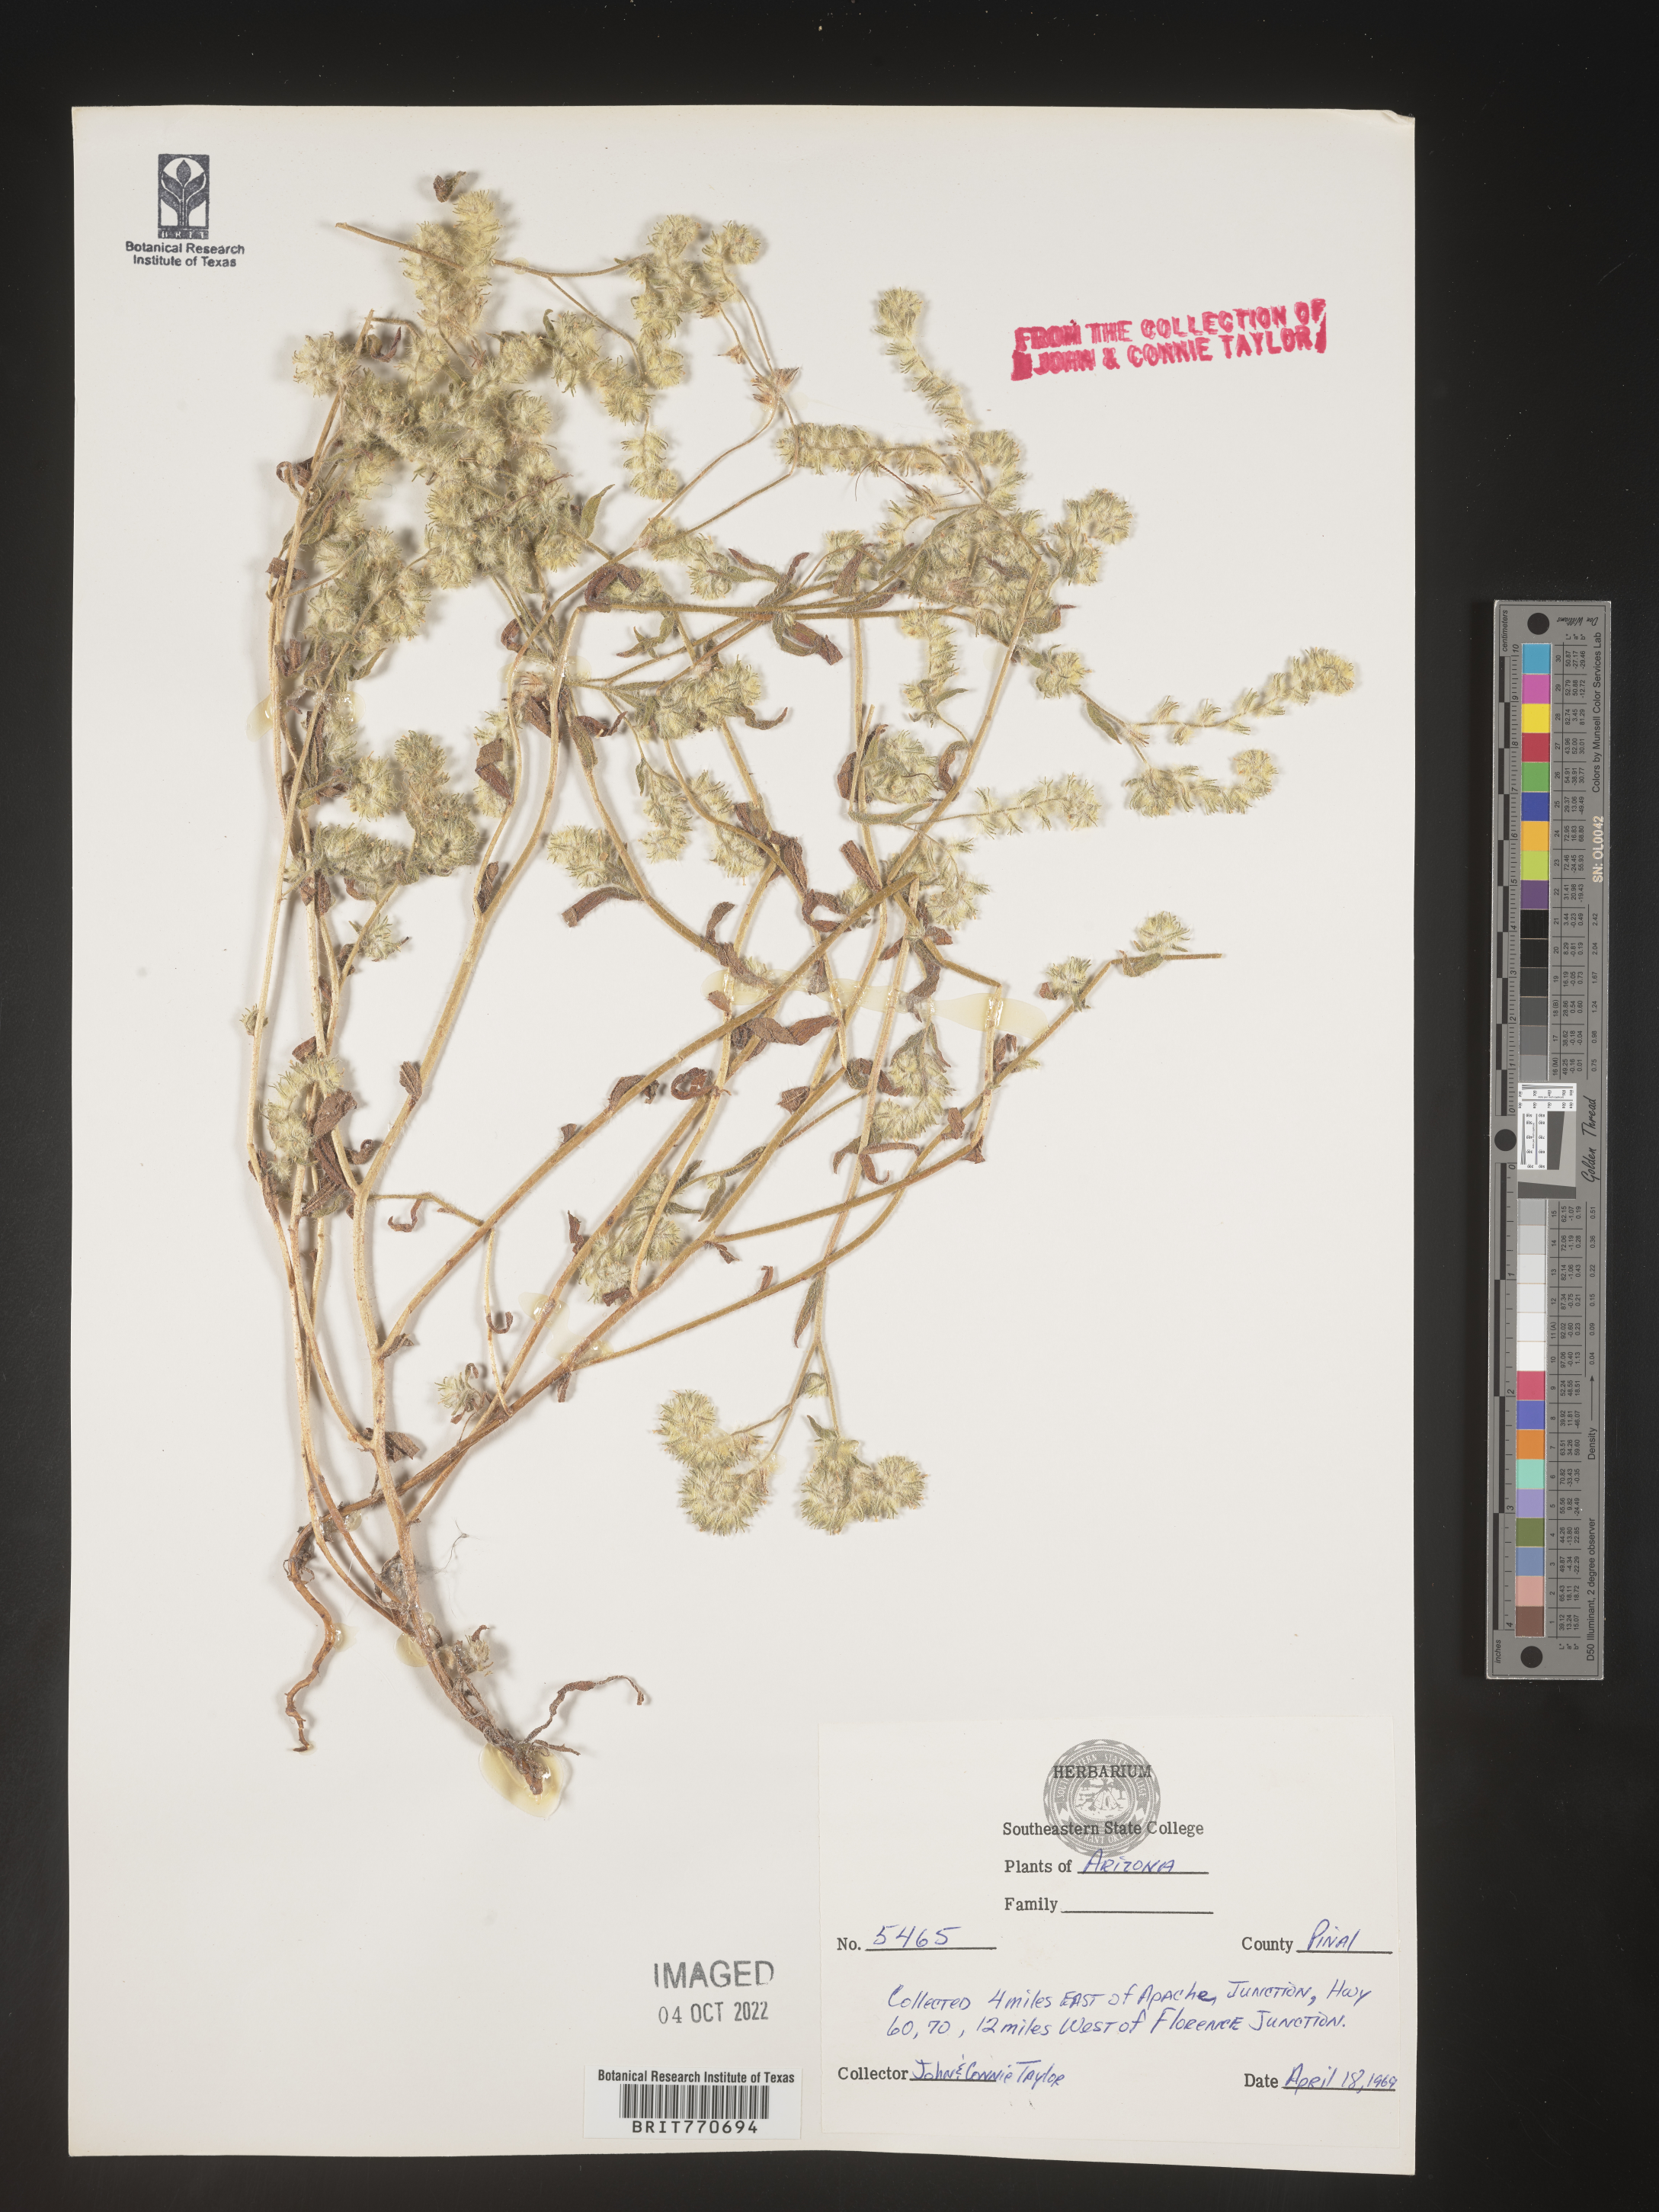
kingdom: Plantae
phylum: Tracheophyta
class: Magnoliopsida
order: Boraginales
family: Boraginaceae
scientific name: Boraginaceae
